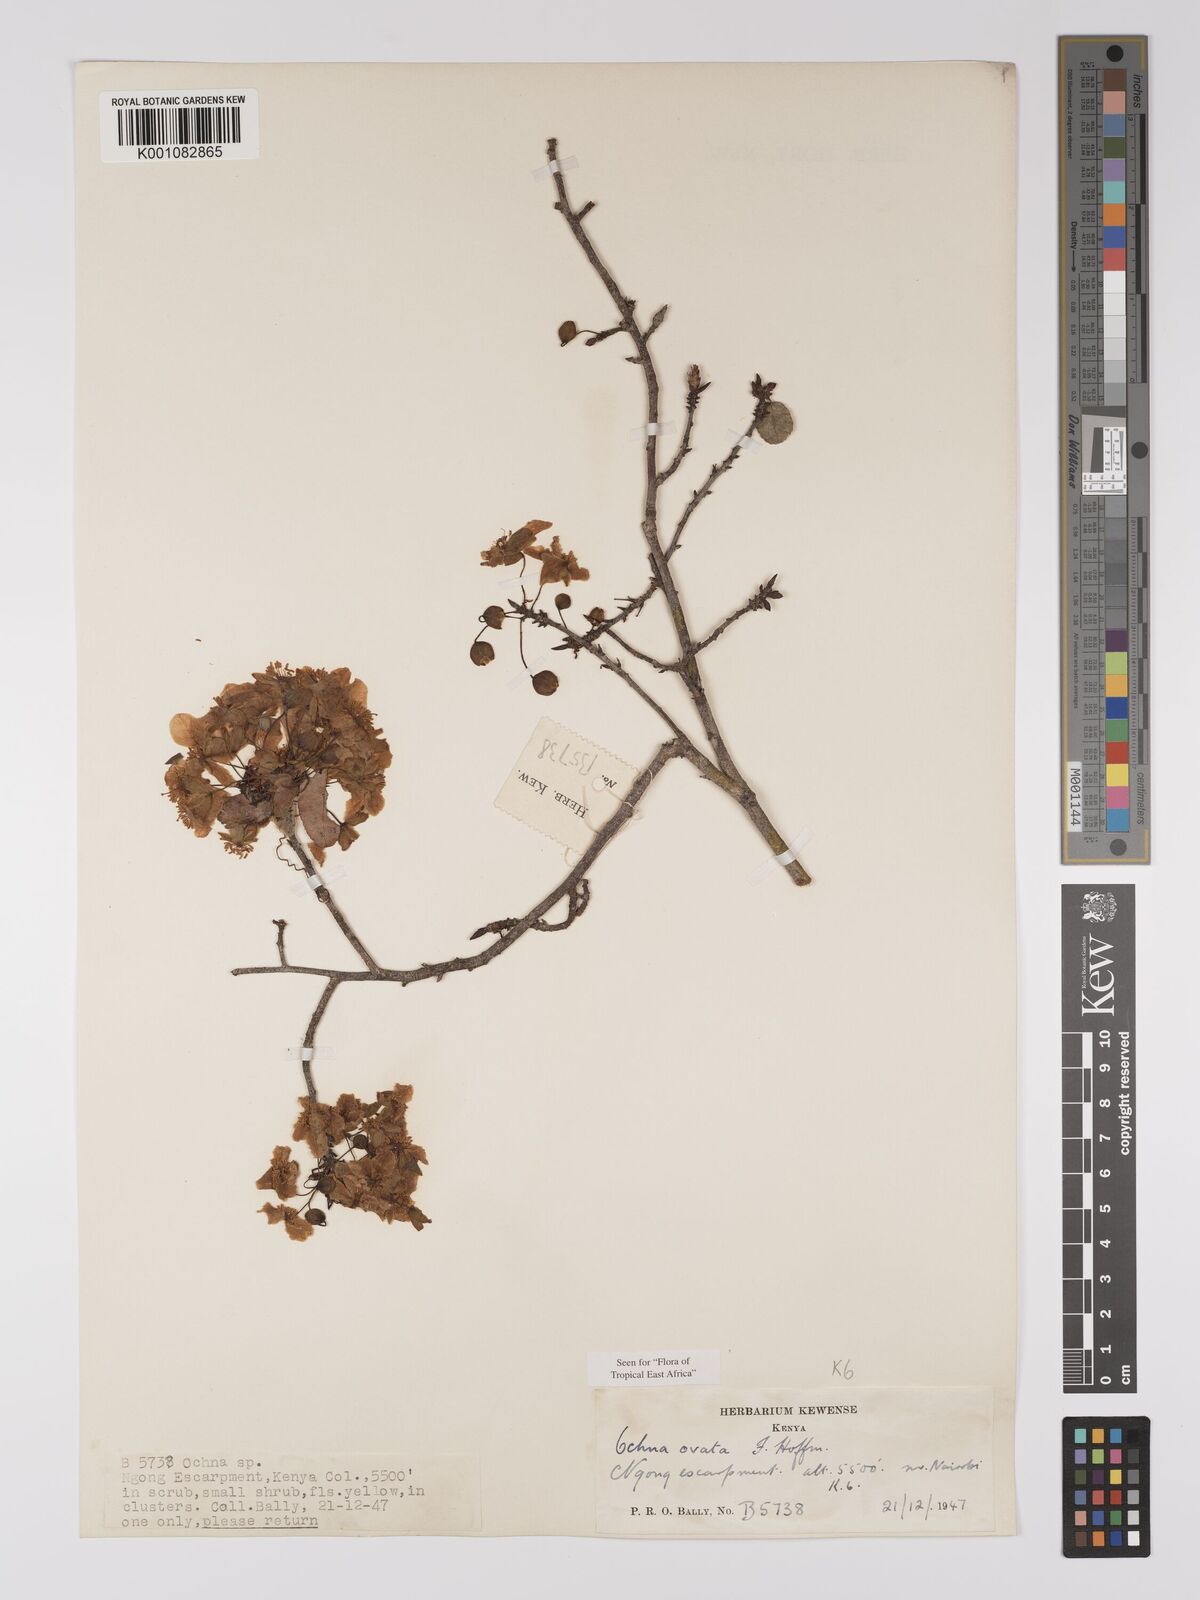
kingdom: Plantae
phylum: Tracheophyta
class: Magnoliopsida
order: Malpighiales
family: Ochnaceae
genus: Ochna
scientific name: Ochna ovata
